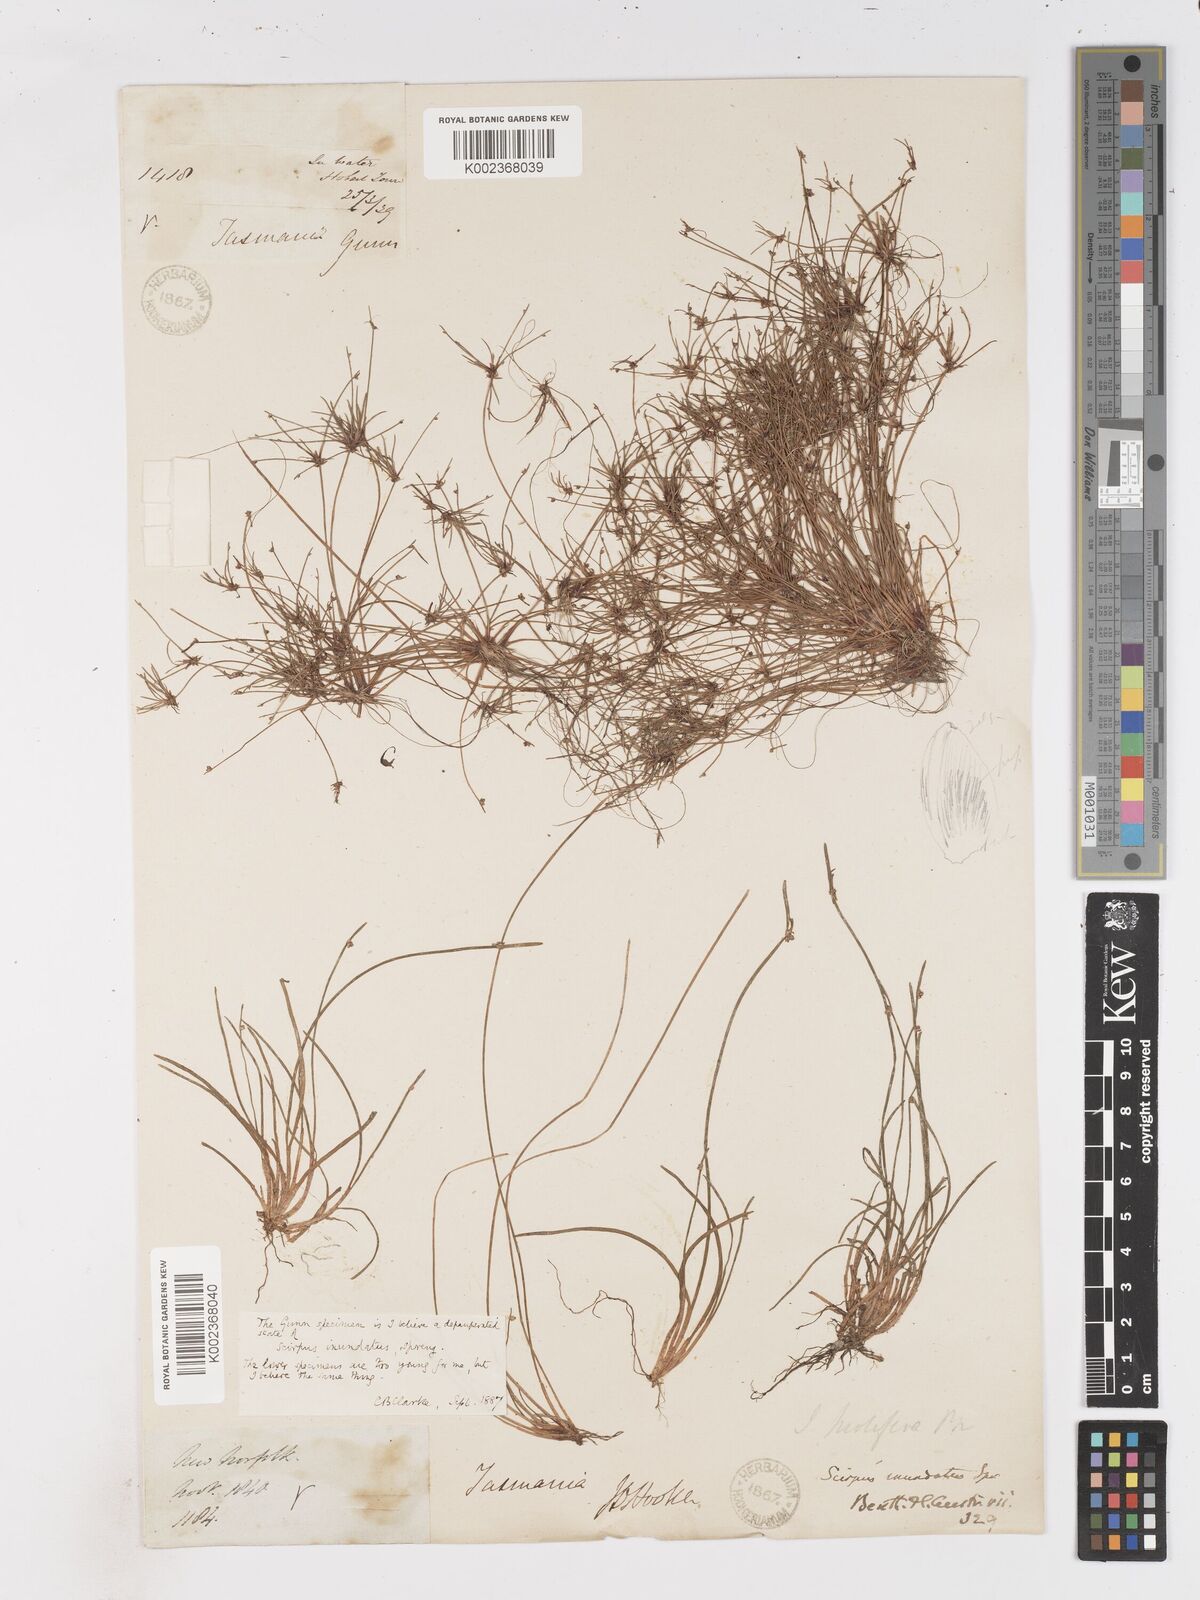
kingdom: Plantae
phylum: Tracheophyta
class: Liliopsida
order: Poales
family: Cyperaceae
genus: Isolepis
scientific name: Isolepis inundata
